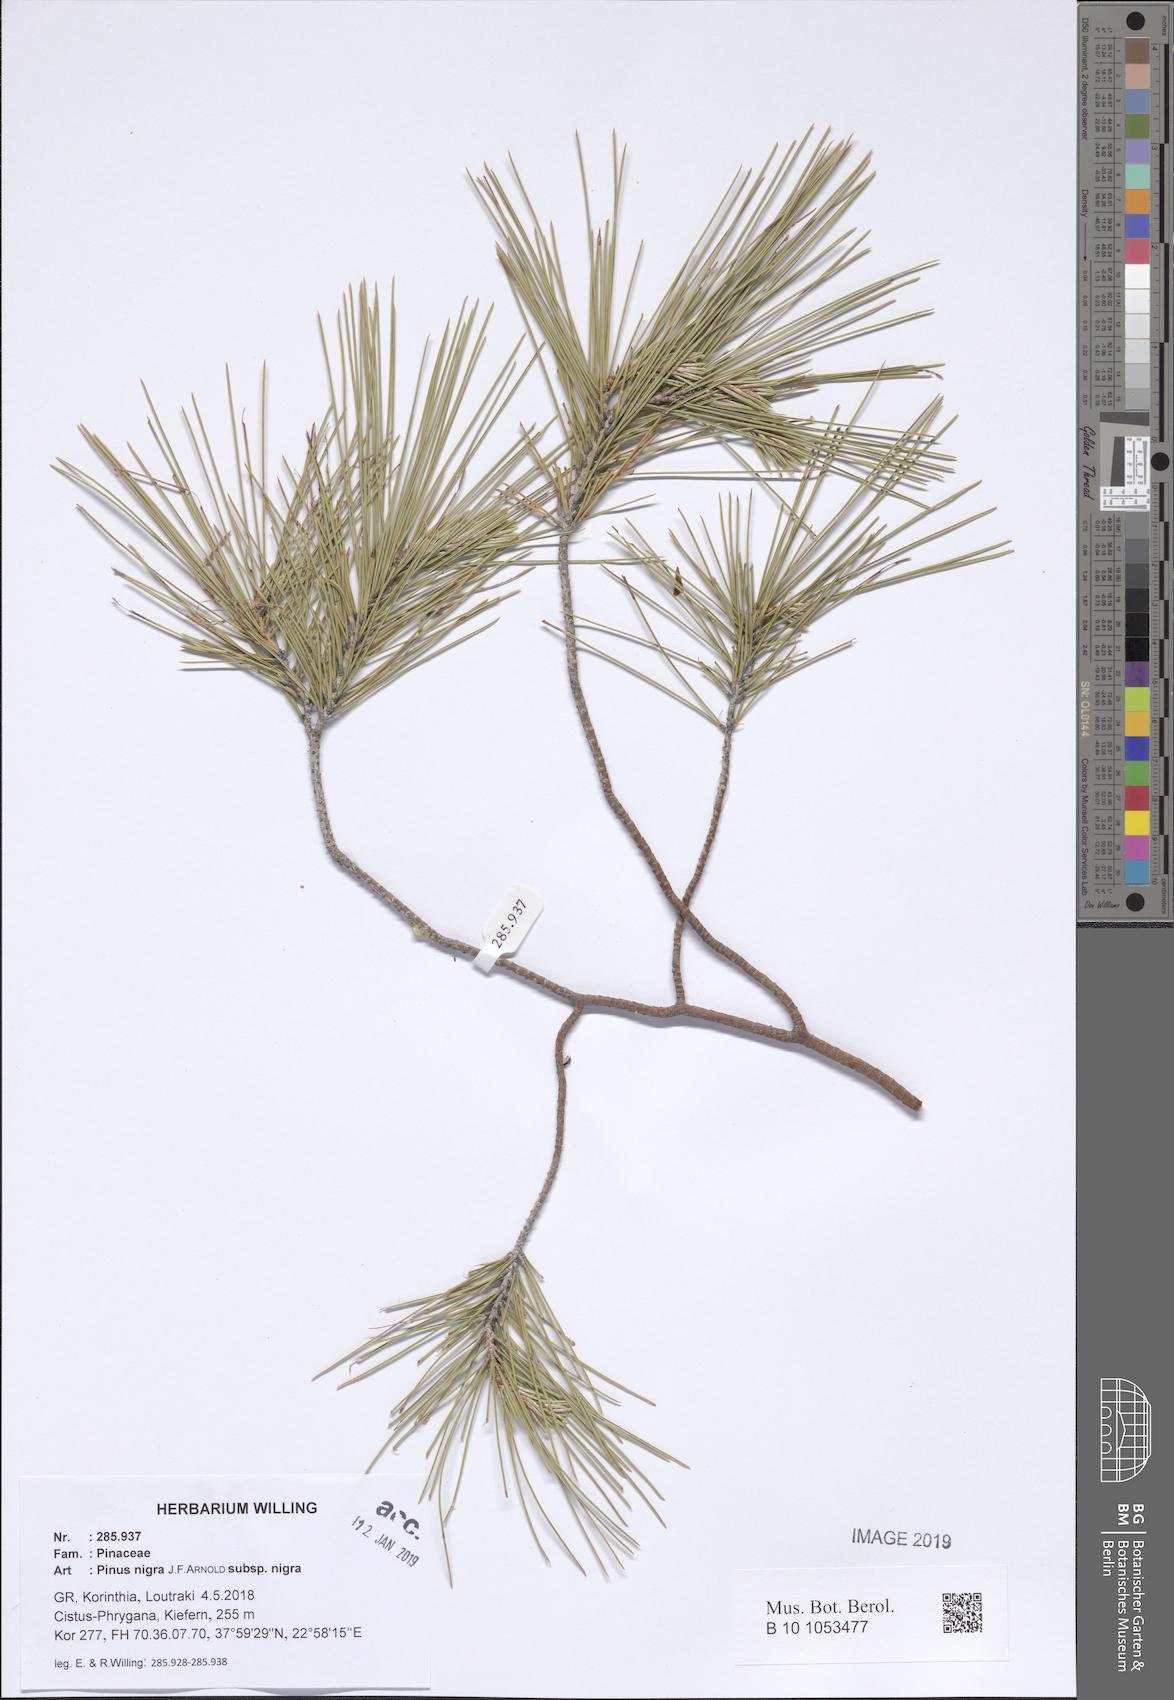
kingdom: Plantae
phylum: Tracheophyta
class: Pinopsida
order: Pinales
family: Pinaceae
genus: Pinus
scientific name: Pinus nigra
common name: Austrian pine
